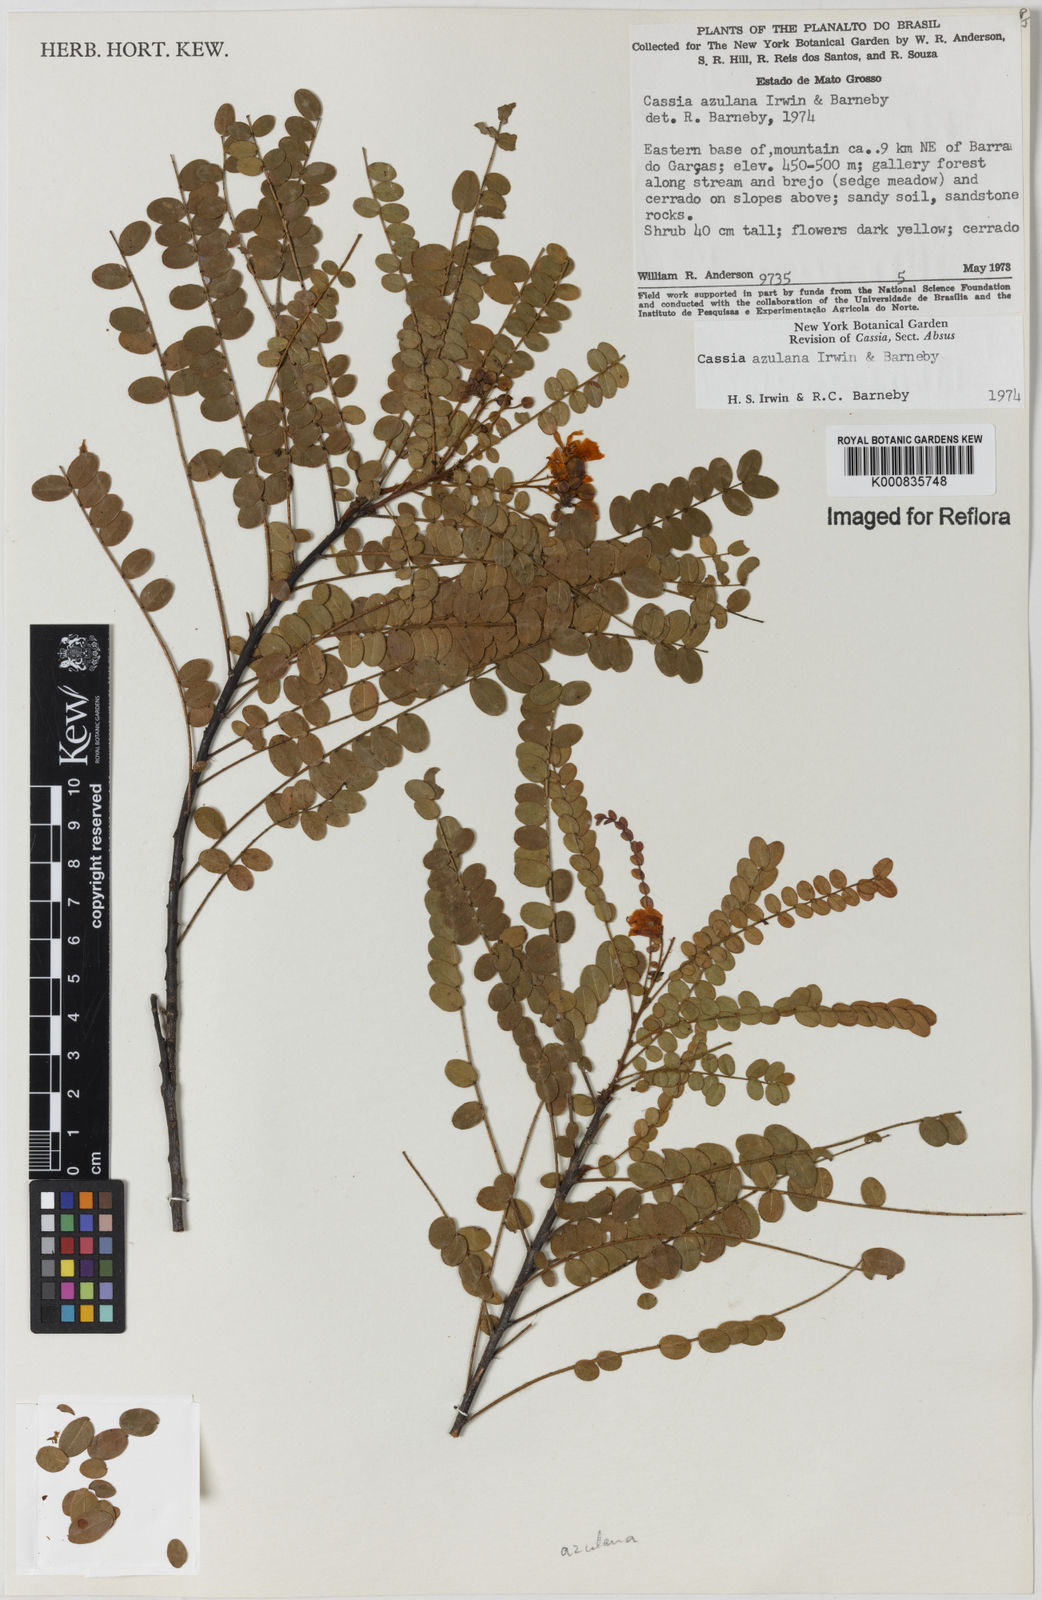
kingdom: Plantae
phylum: Tracheophyta
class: Magnoliopsida
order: Fabales
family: Fabaceae
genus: Chamaecrista
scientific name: Chamaecrista azulana
